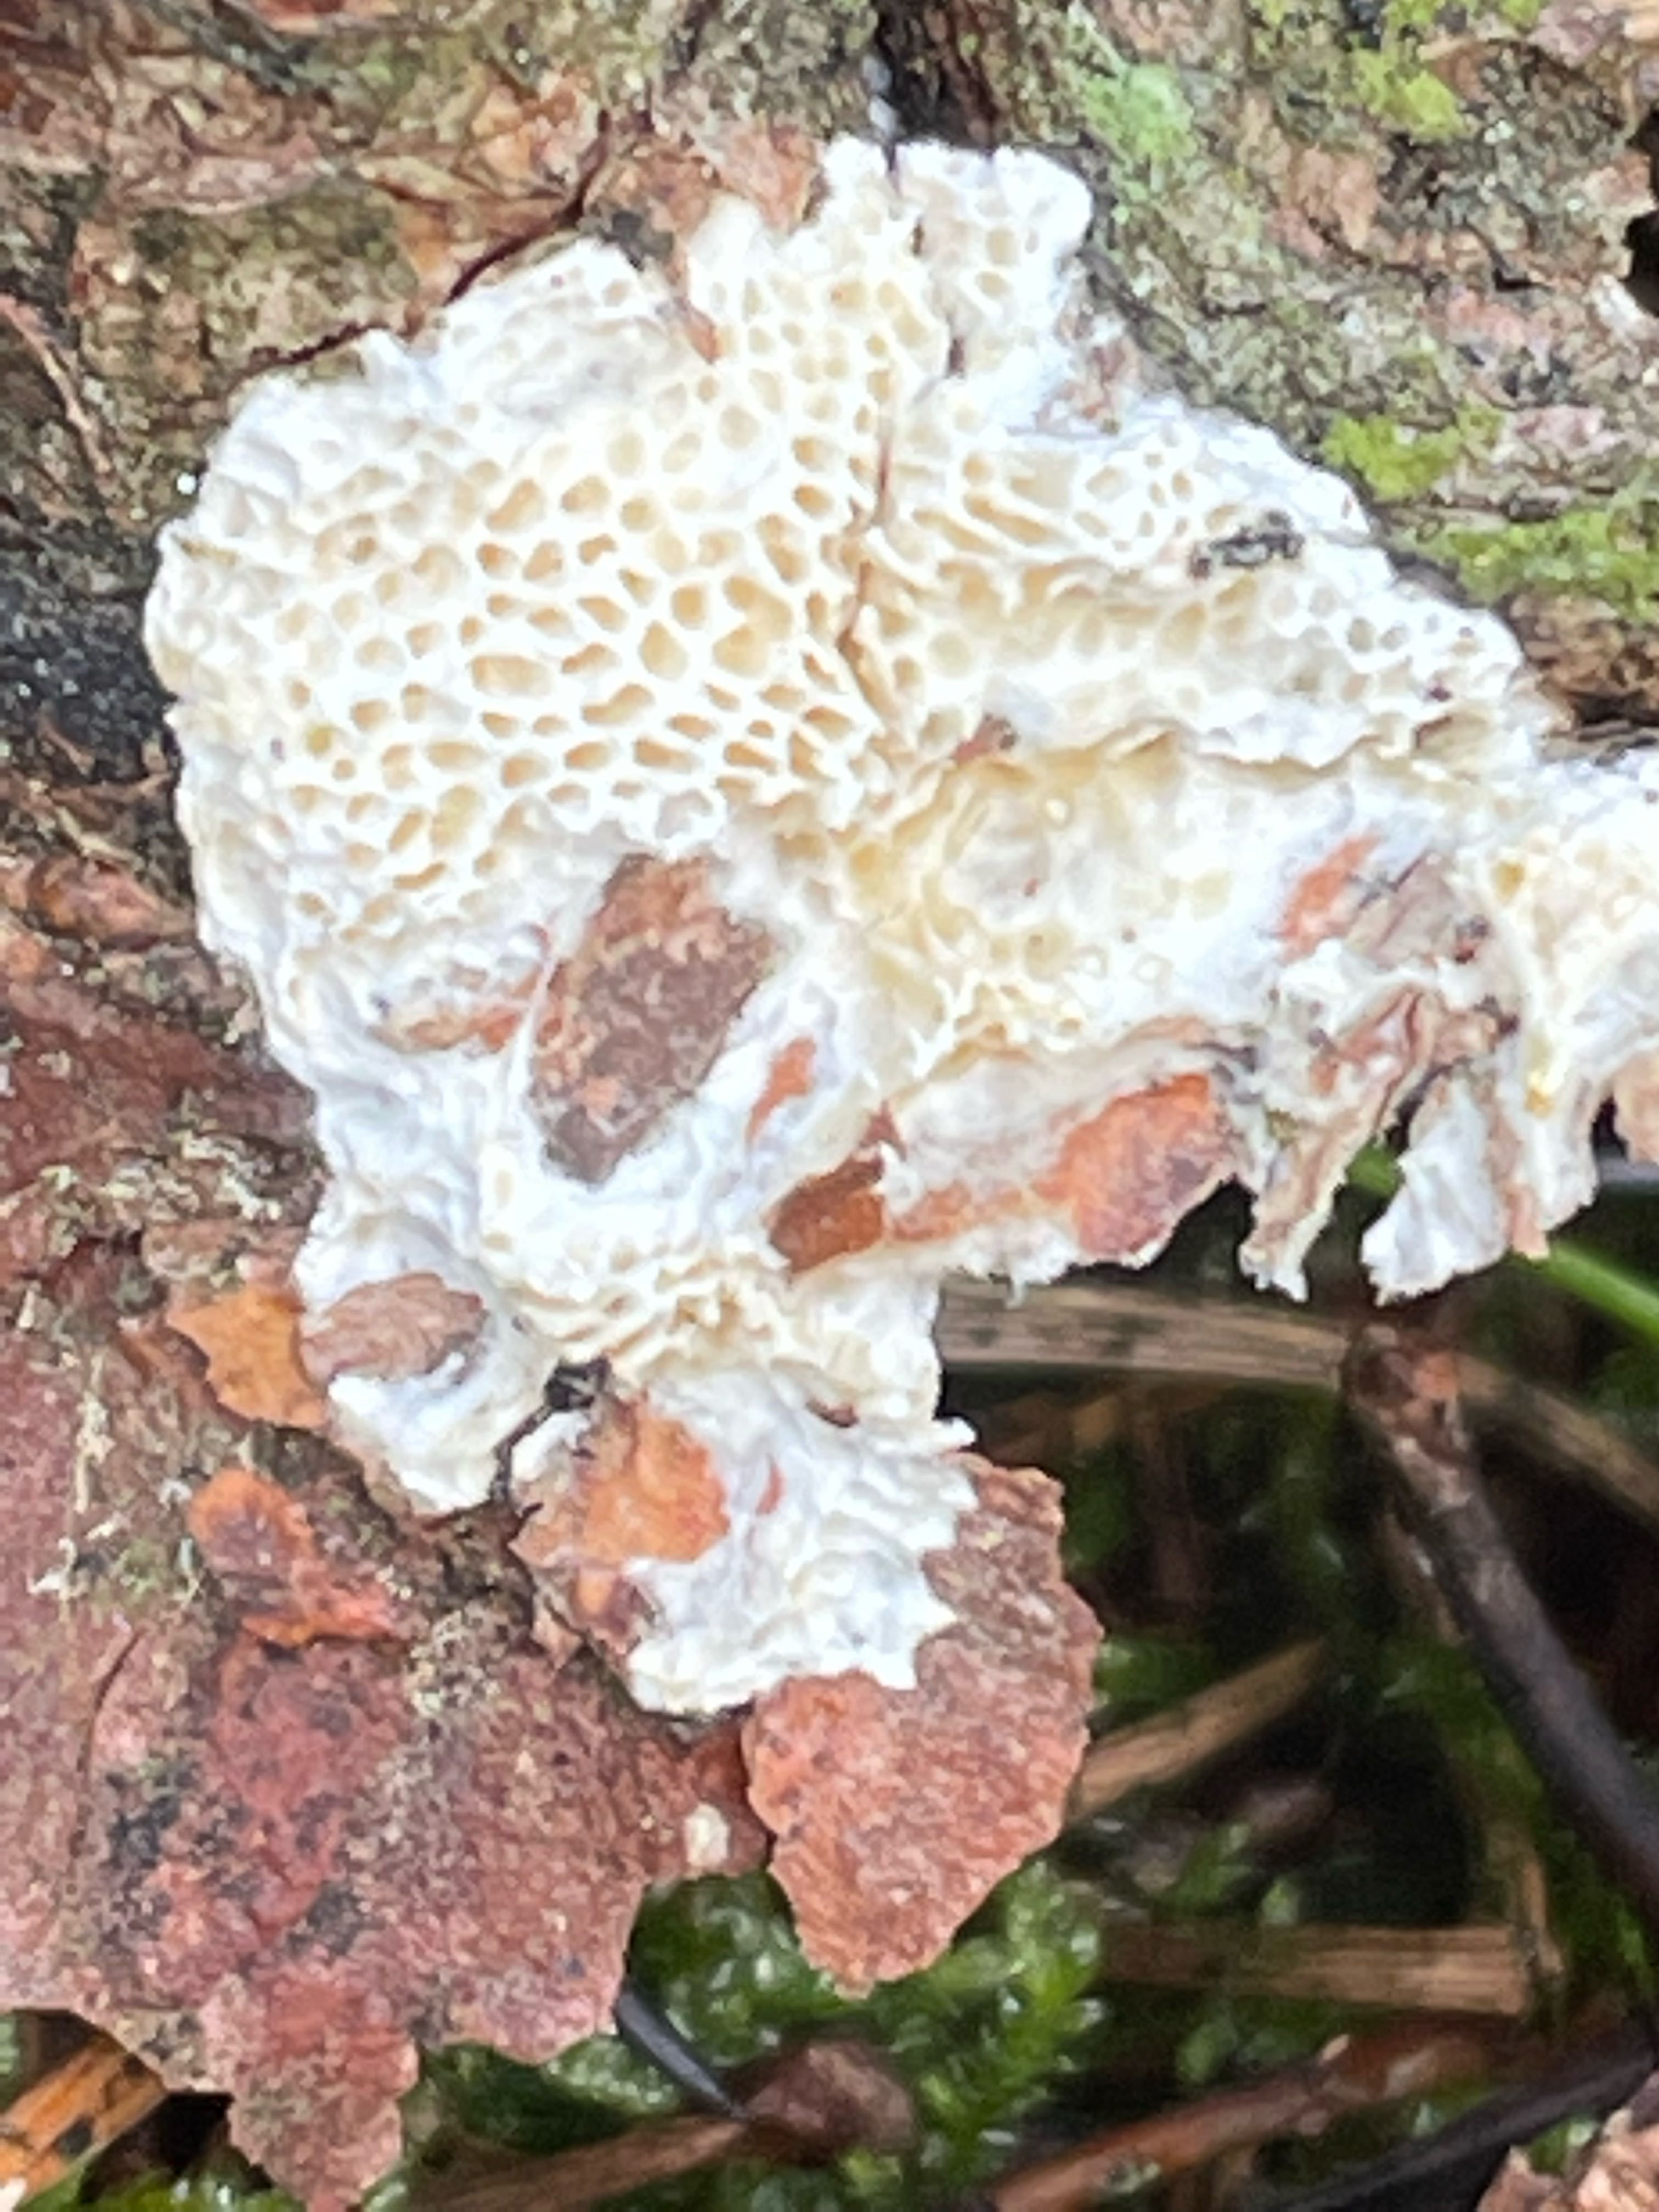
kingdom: Fungi
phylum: Basidiomycota
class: Agaricomycetes
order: Polyporales
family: Fomitopsidaceae
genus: Fomitopsis
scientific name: Fomitopsis
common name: fyrre-skiveporesvamp
